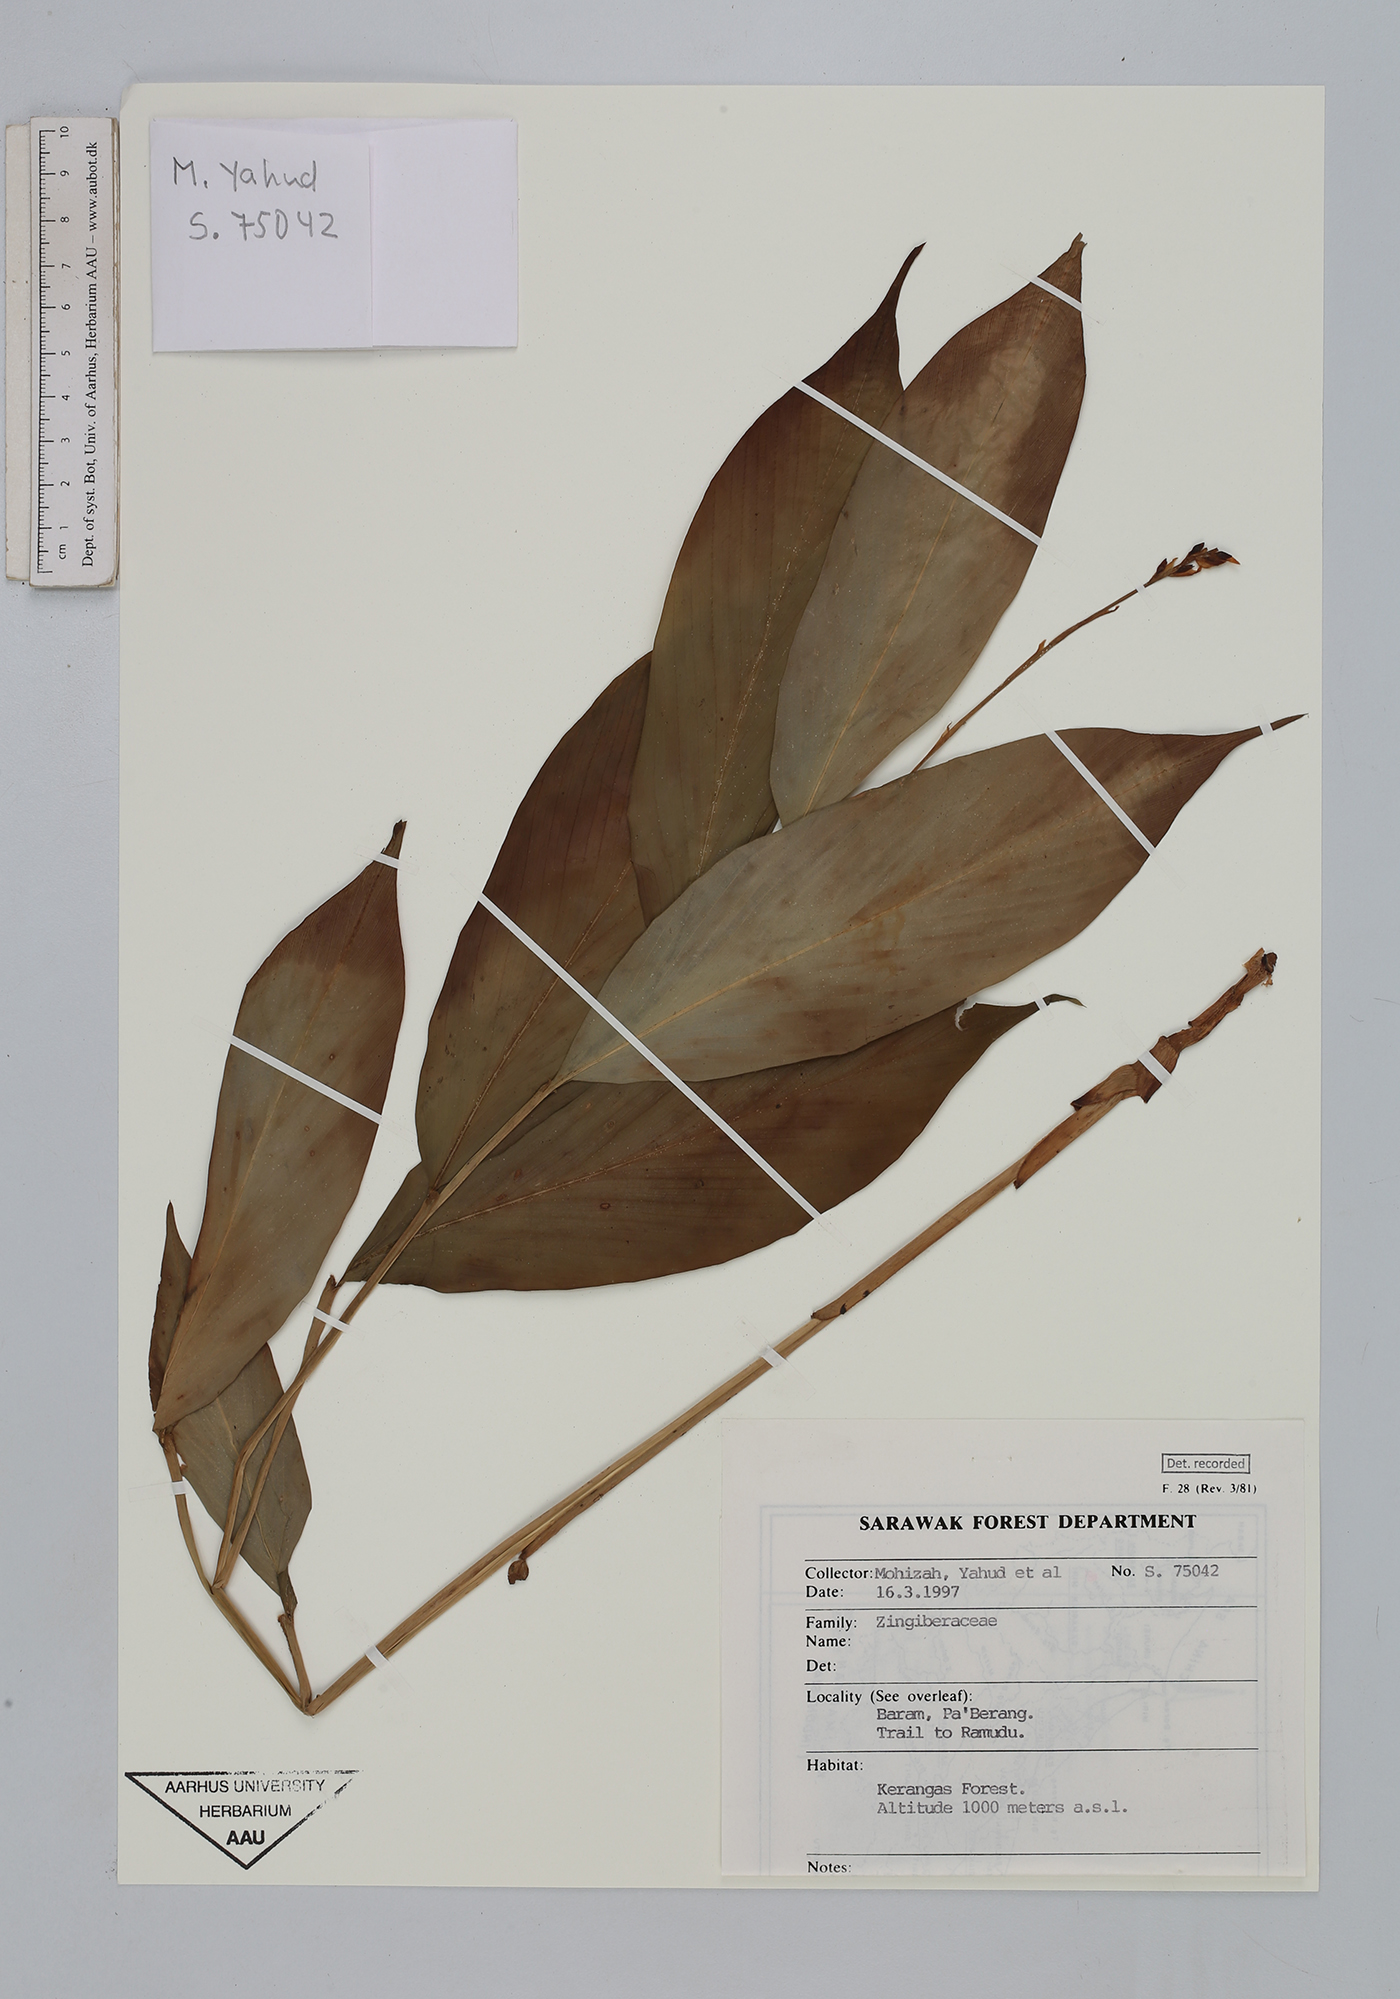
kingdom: Plantae
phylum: Tracheophyta
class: Liliopsida
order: Zingiberales
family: Zingiberaceae
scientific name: Zingiberaceae
